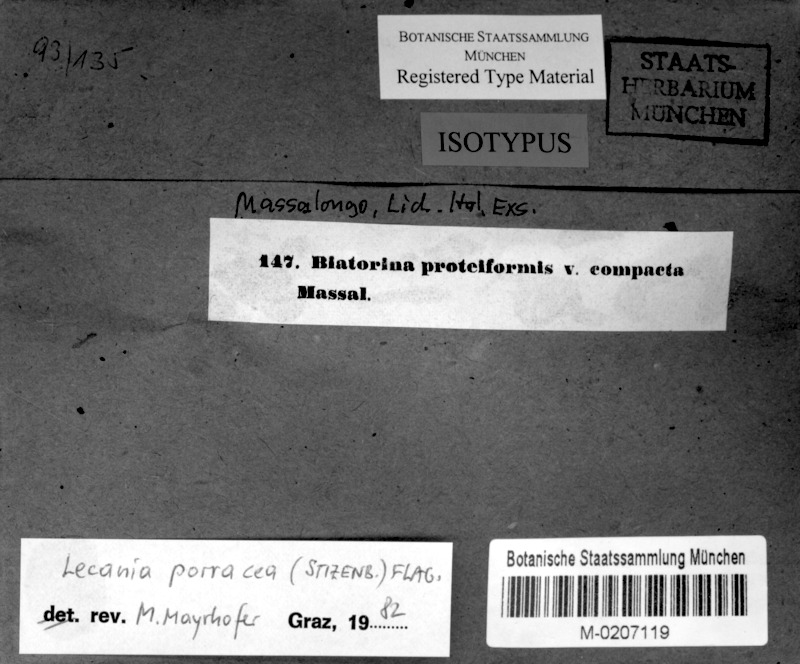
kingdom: Fungi
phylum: Ascomycota
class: Lecanoromycetes
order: Lecanorales
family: Ramalinaceae
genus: Lecania
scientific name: Lecania inundata
